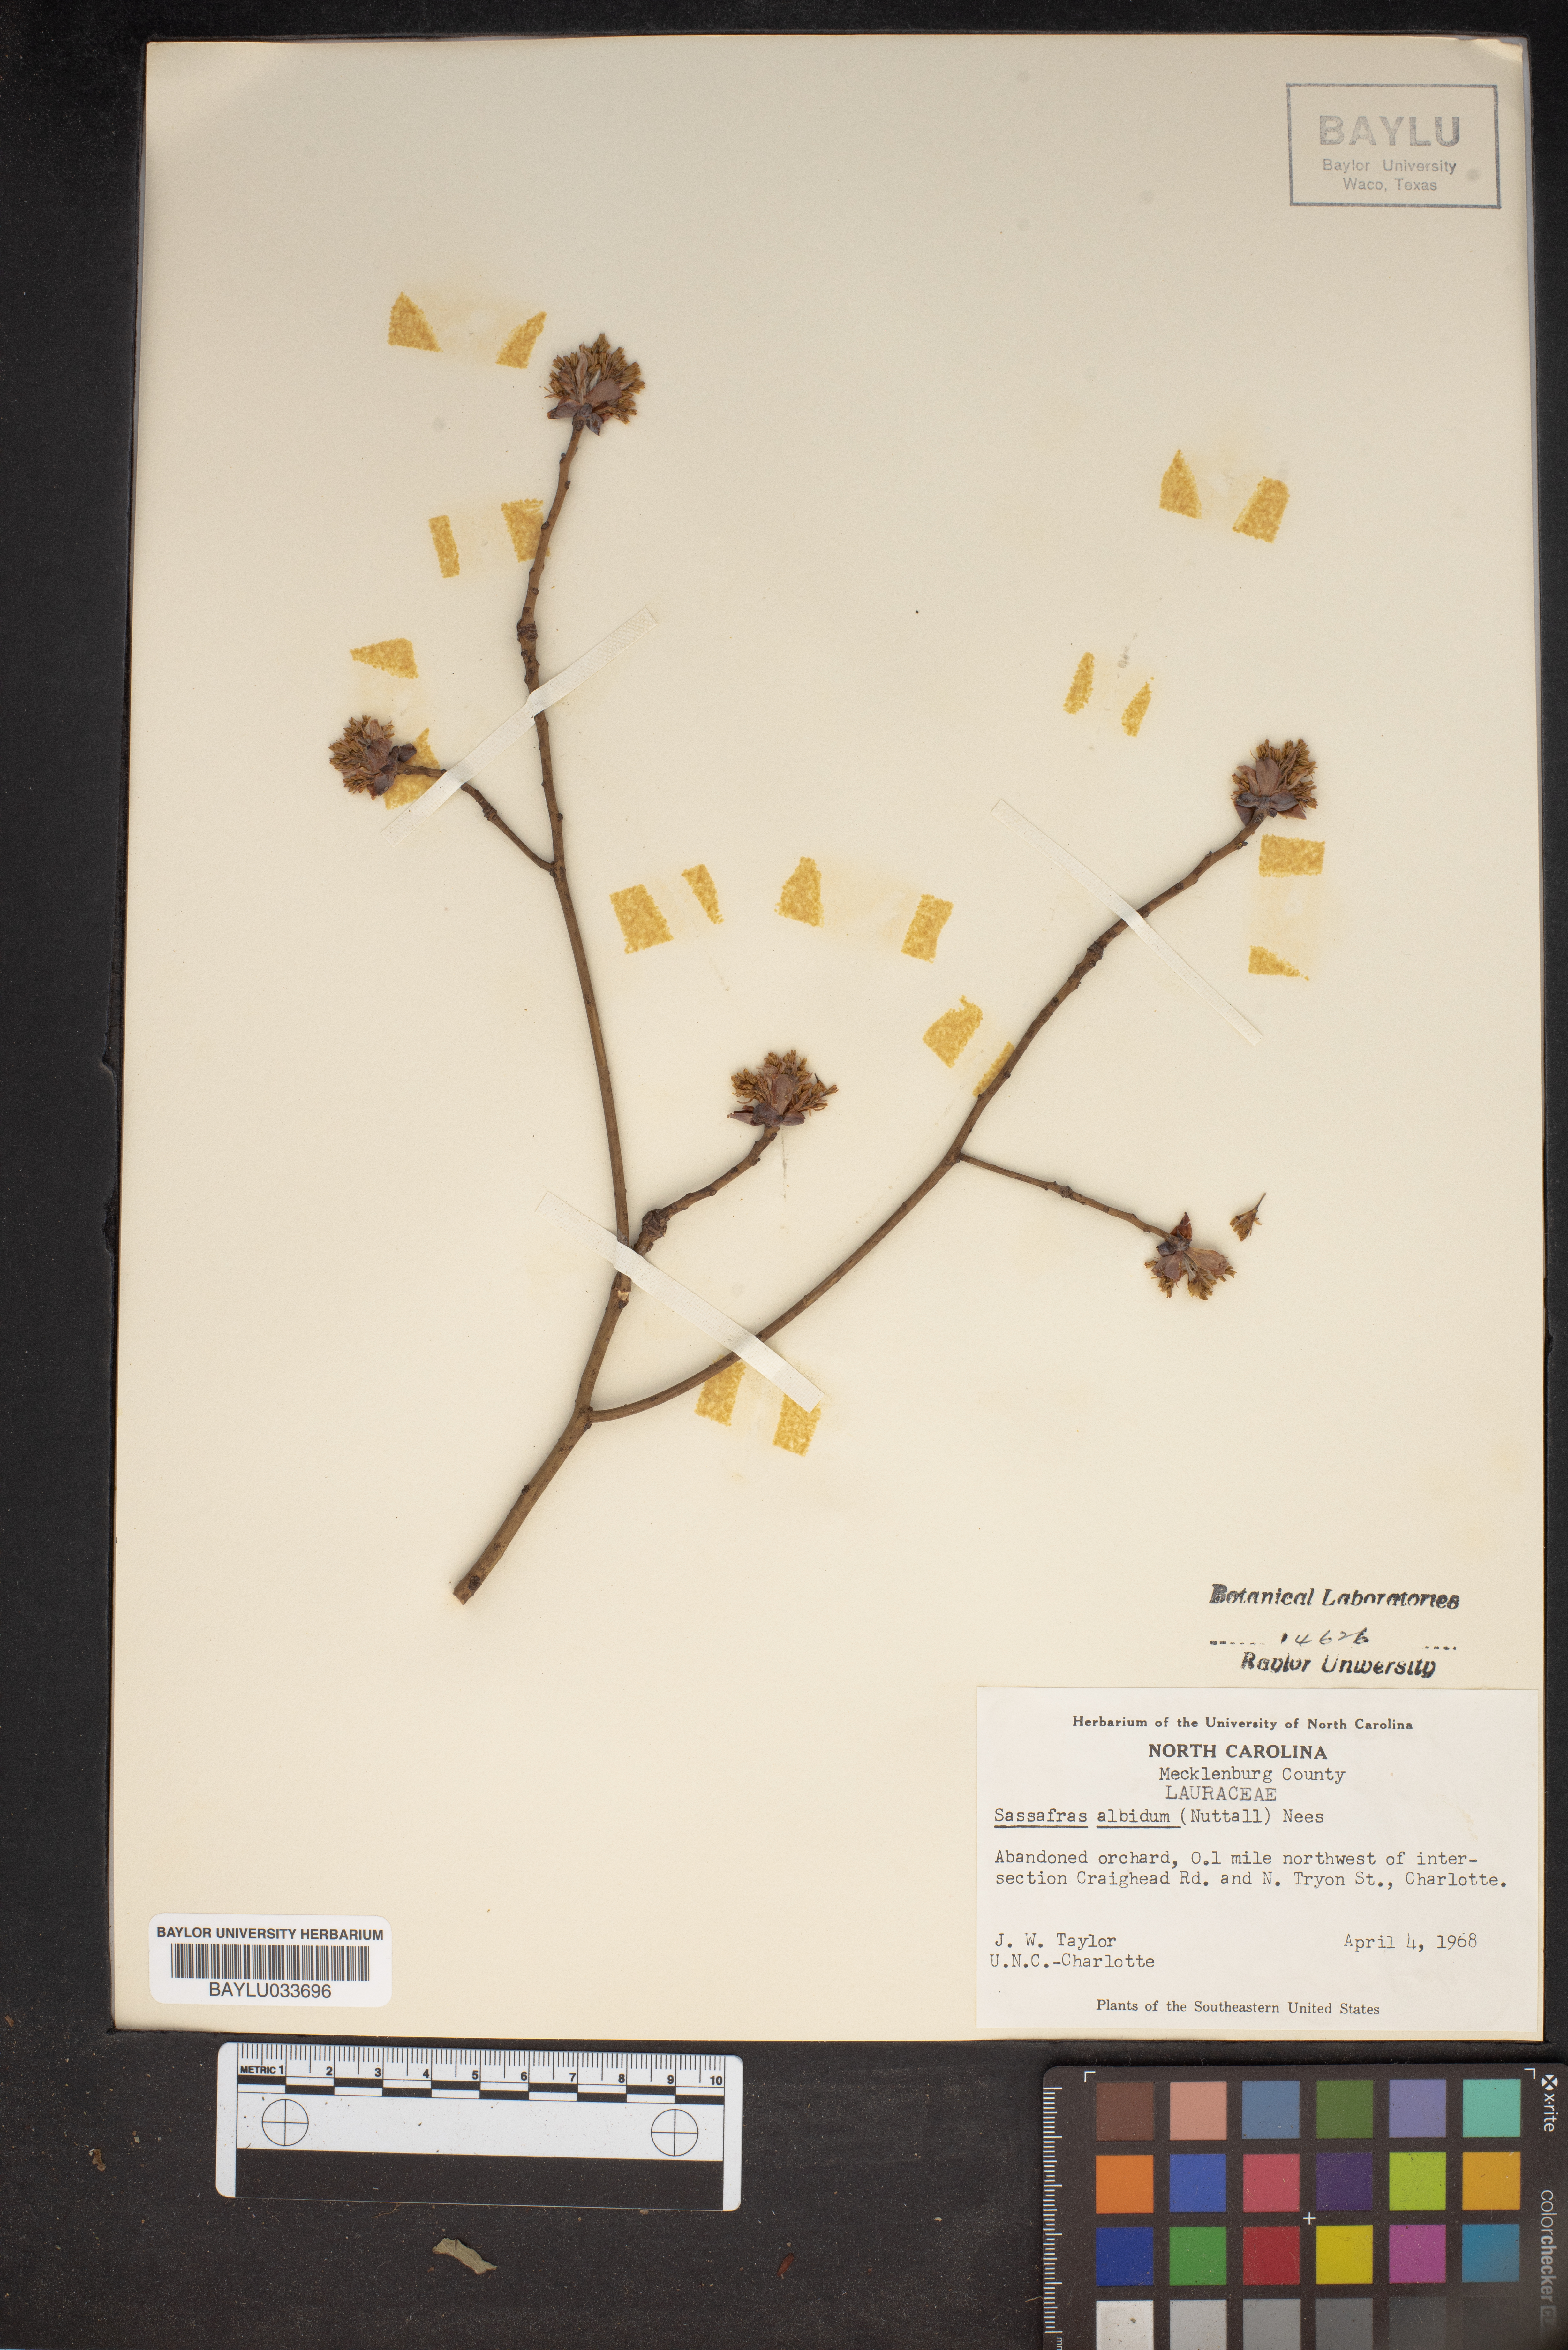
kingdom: Plantae
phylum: Tracheophyta
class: Magnoliopsida
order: Laurales
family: Lauraceae
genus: Sassafras
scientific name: Sassafras albidum
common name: Sassafras
